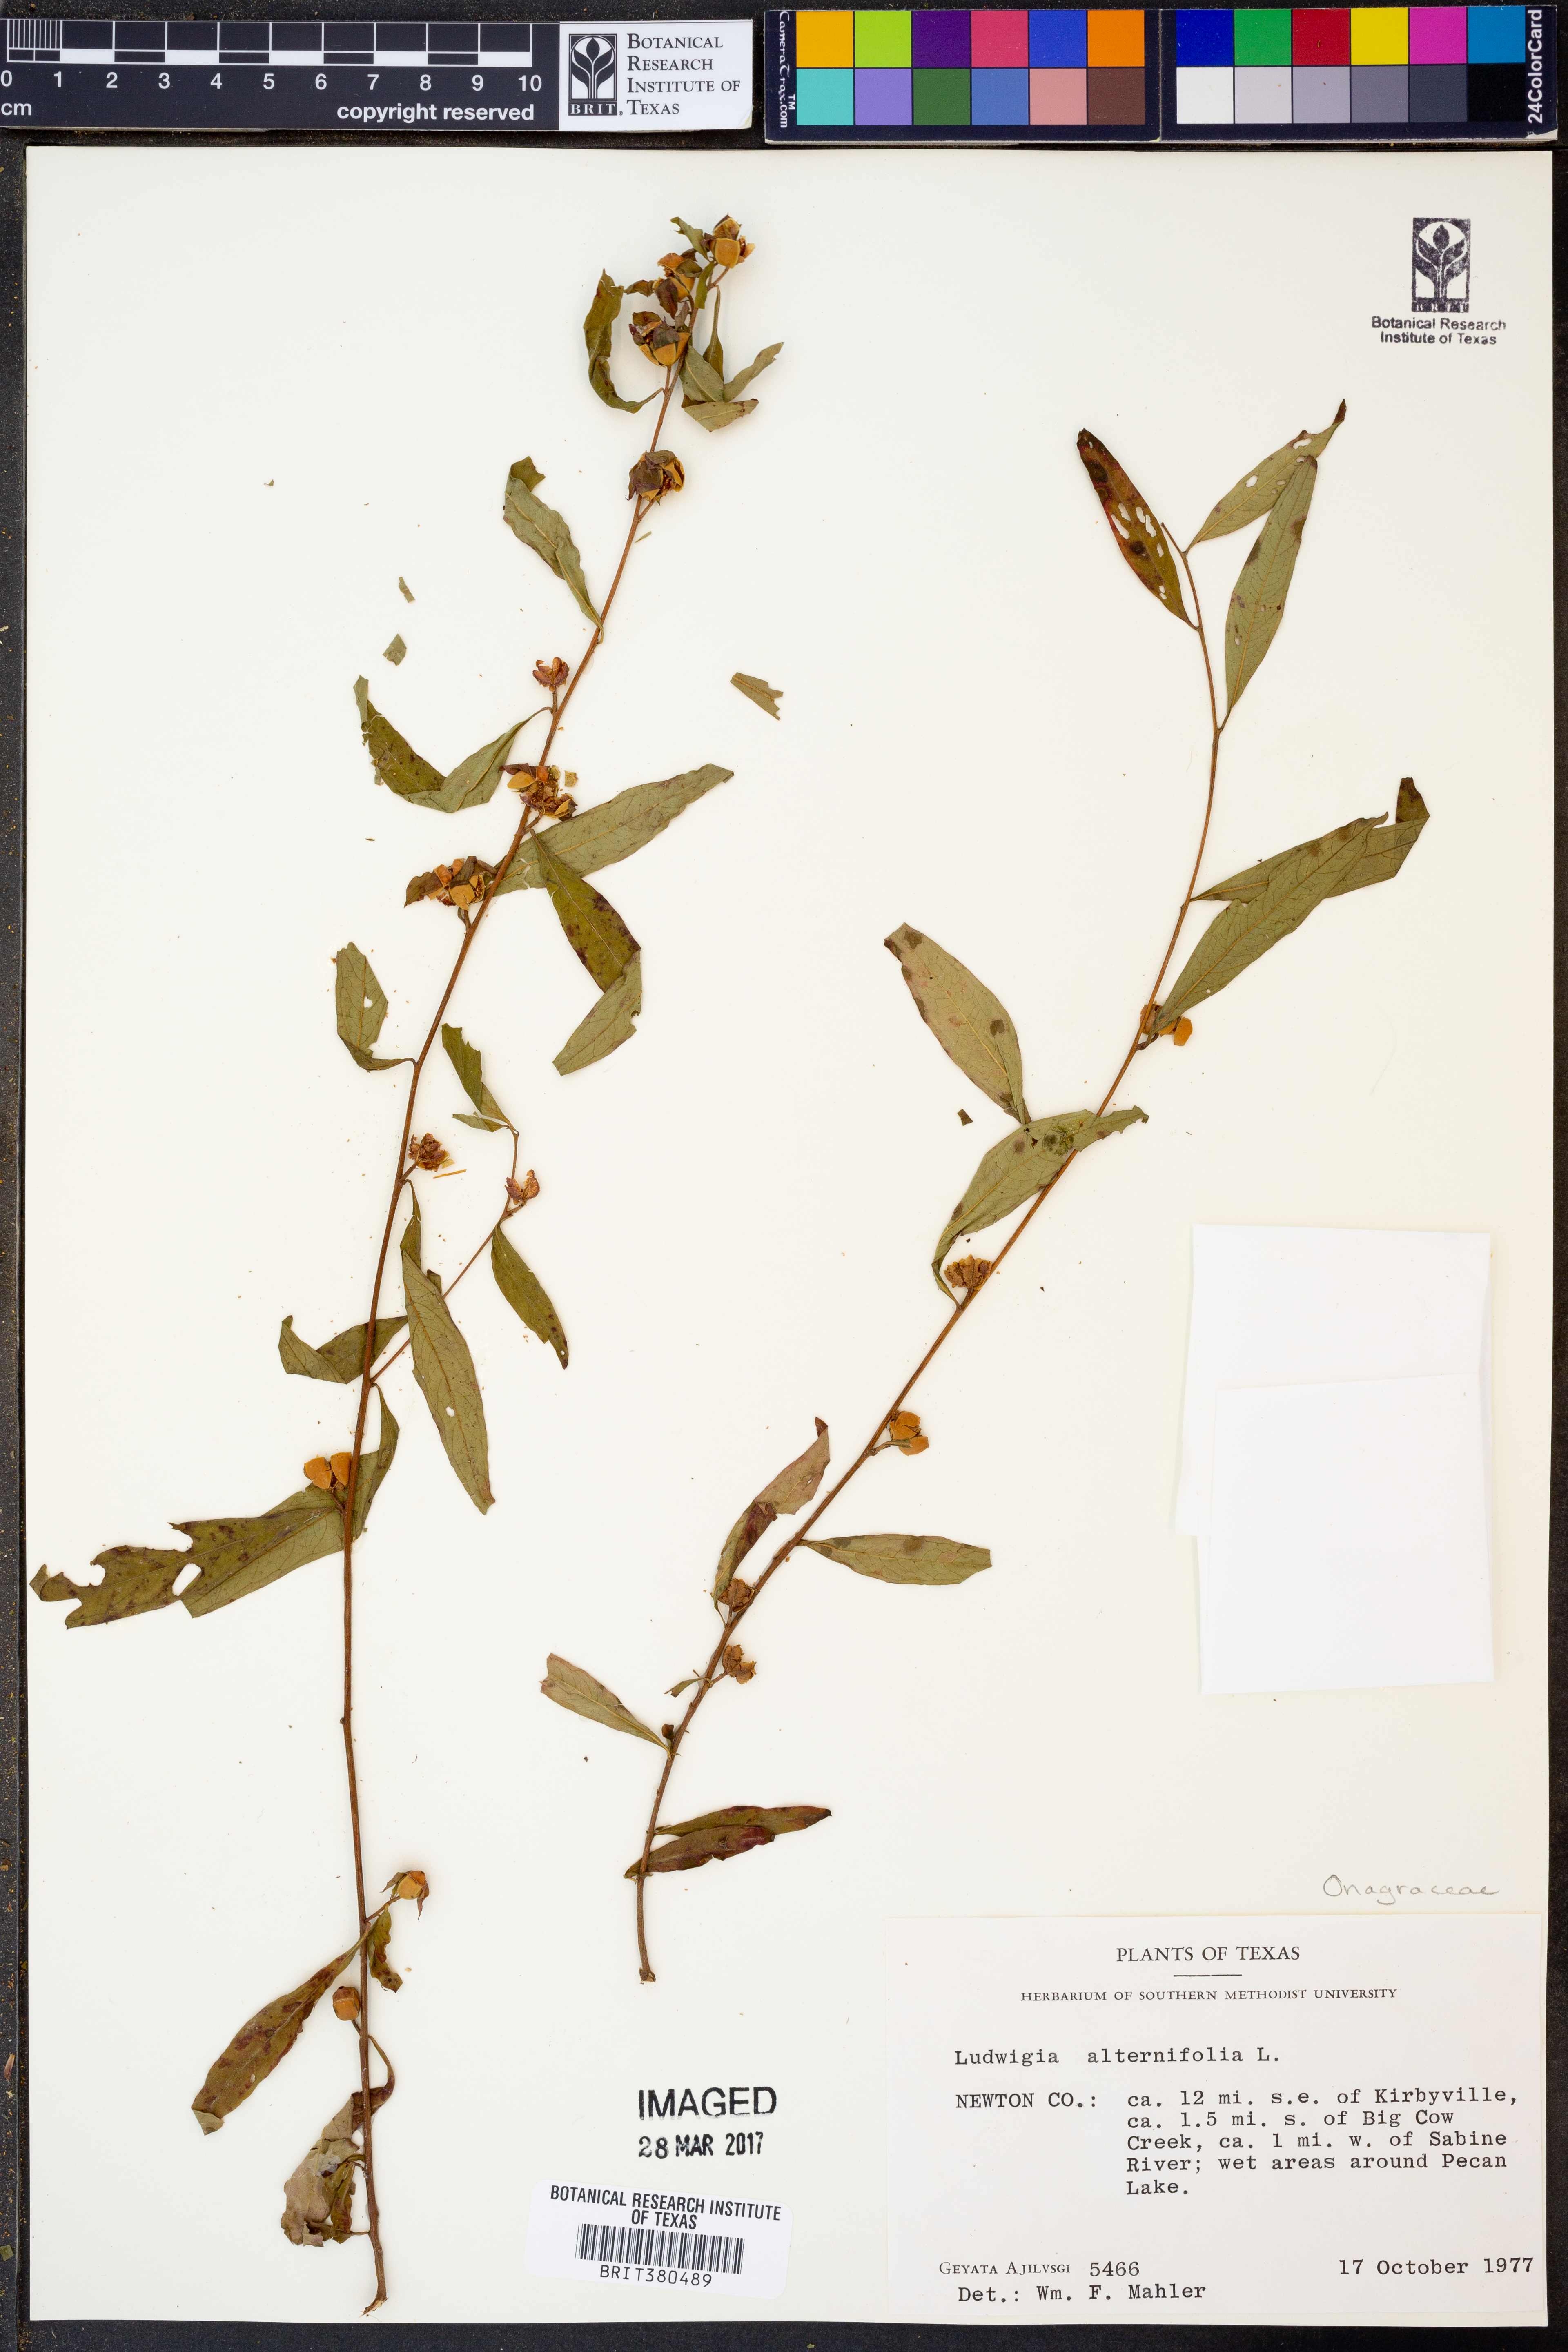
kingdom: Plantae
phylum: Tracheophyta
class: Magnoliopsida
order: Myrtales
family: Onagraceae
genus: Ludwigia
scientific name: Ludwigia alternifolia
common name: Rattlebox
